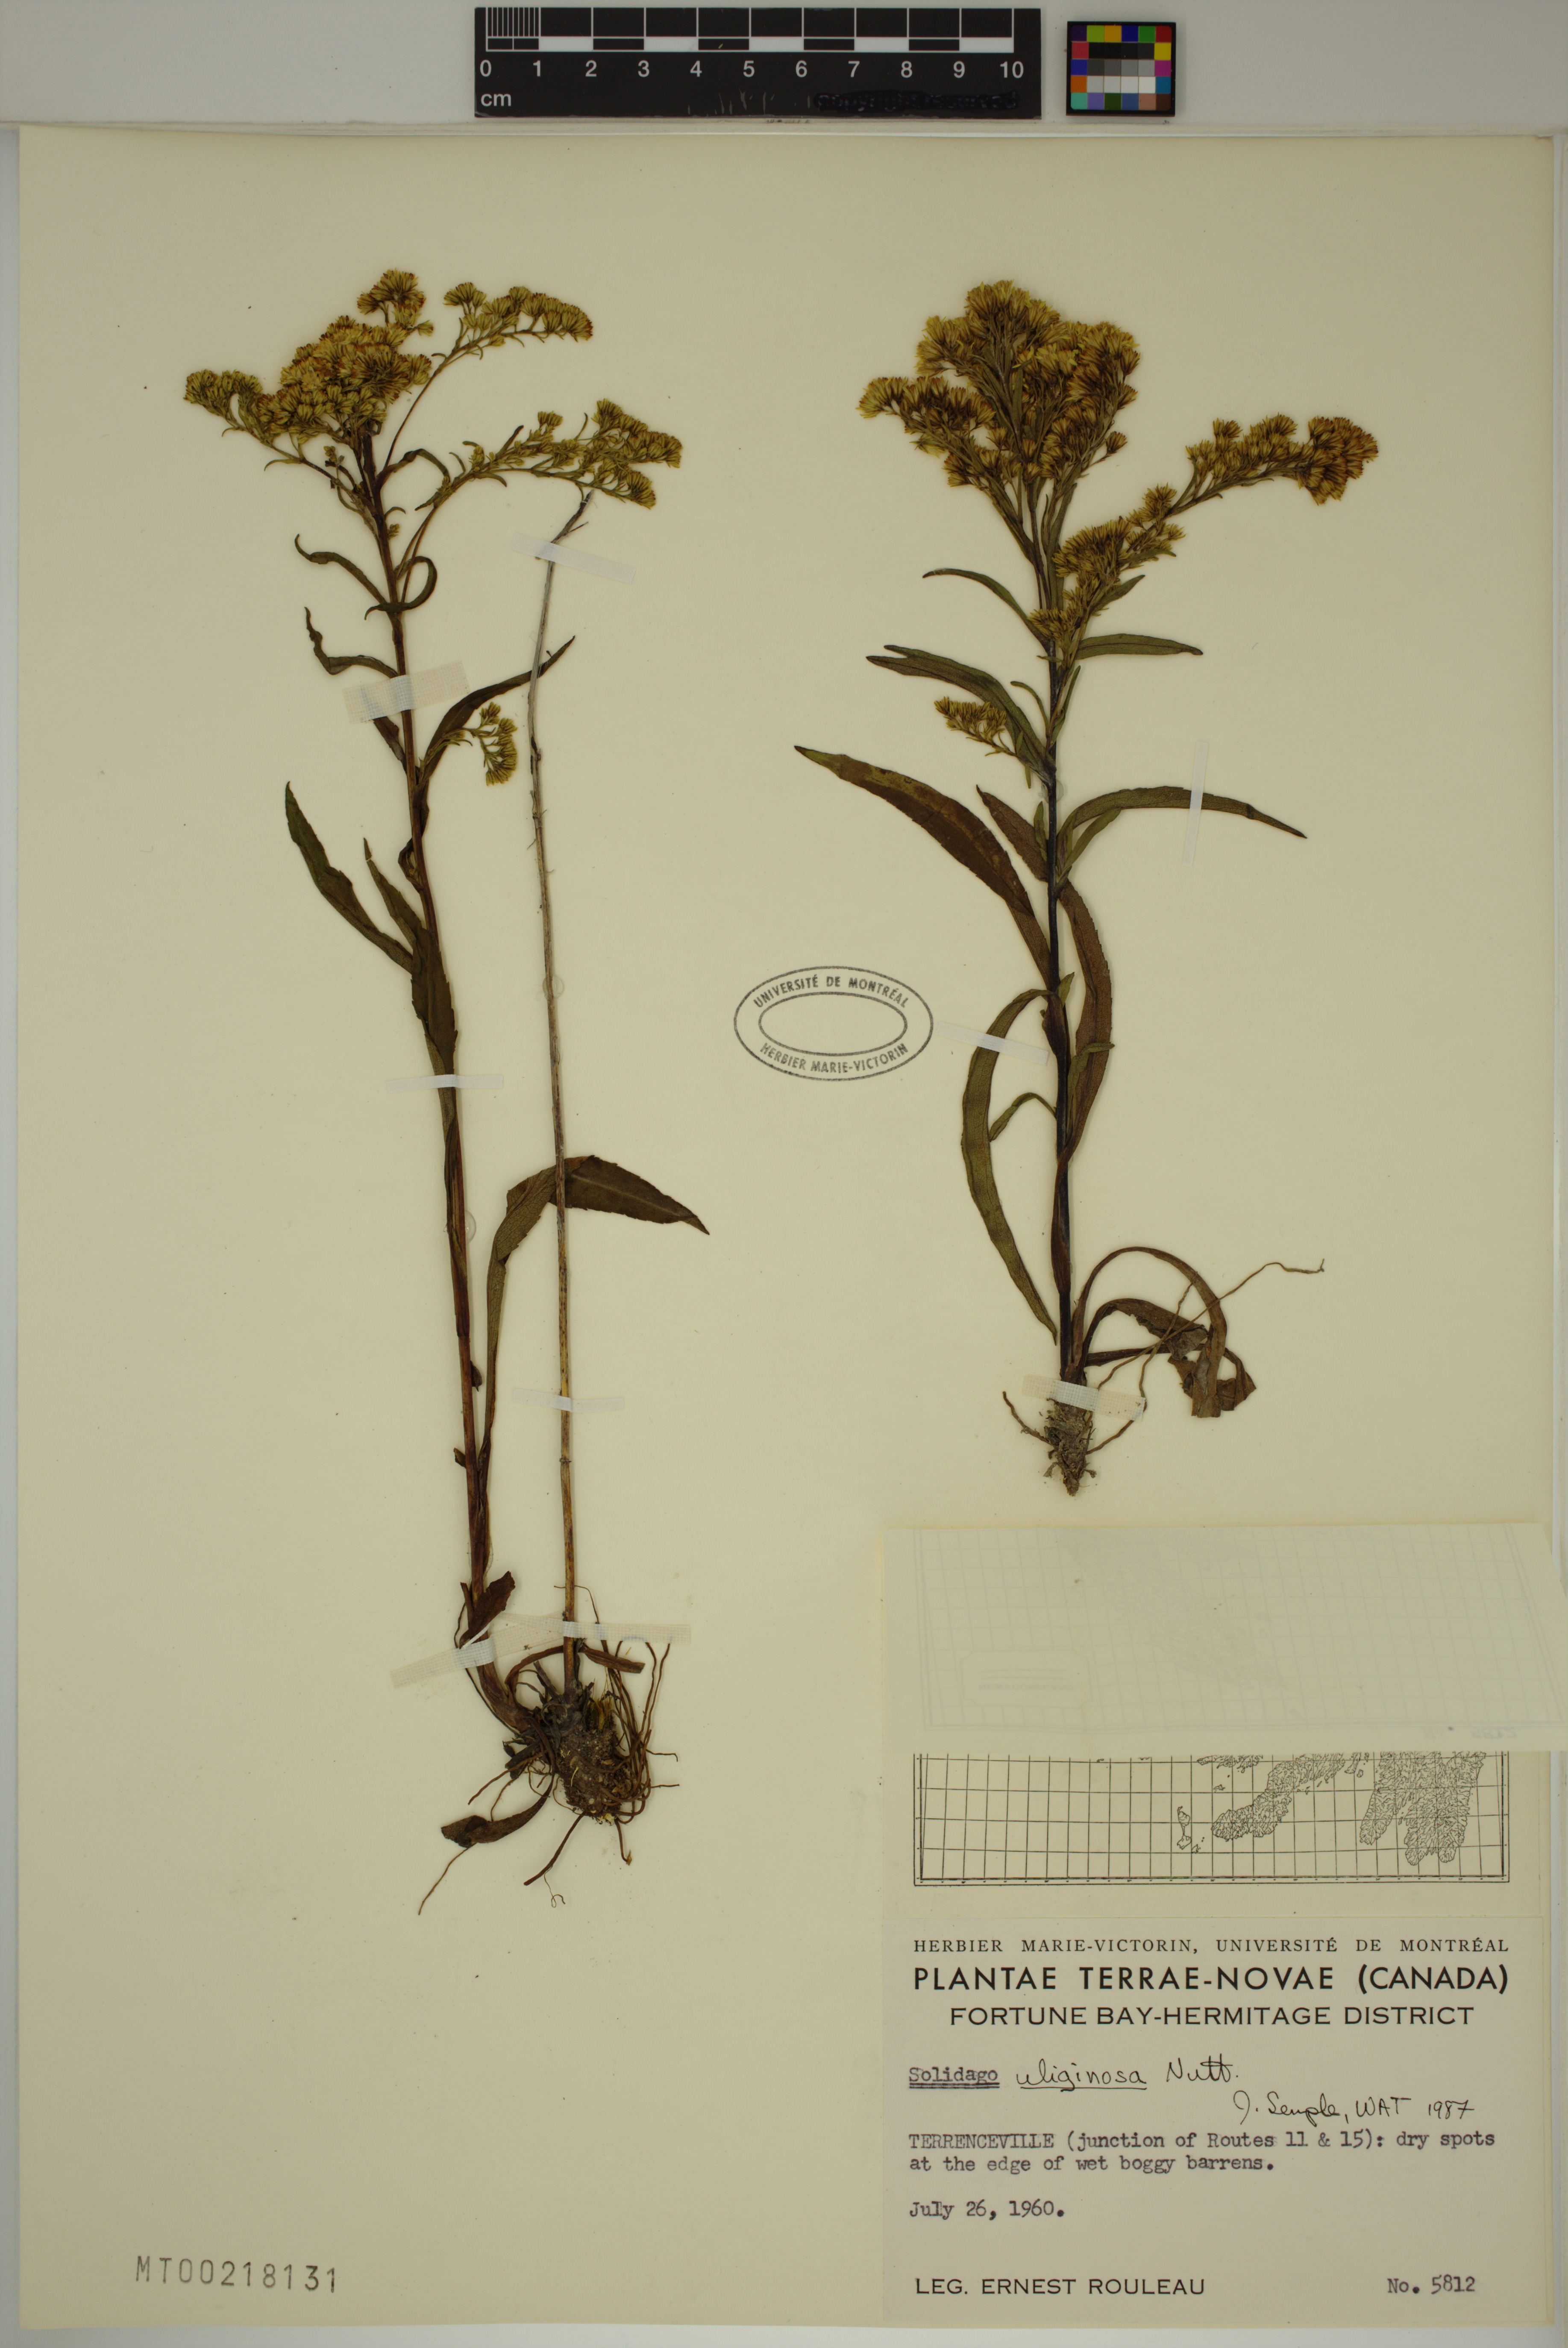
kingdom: Plantae
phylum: Tracheophyta
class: Magnoliopsida
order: Asterales
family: Asteraceae
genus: Solidago
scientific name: Solidago uliginosa
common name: Bog goldenrod
